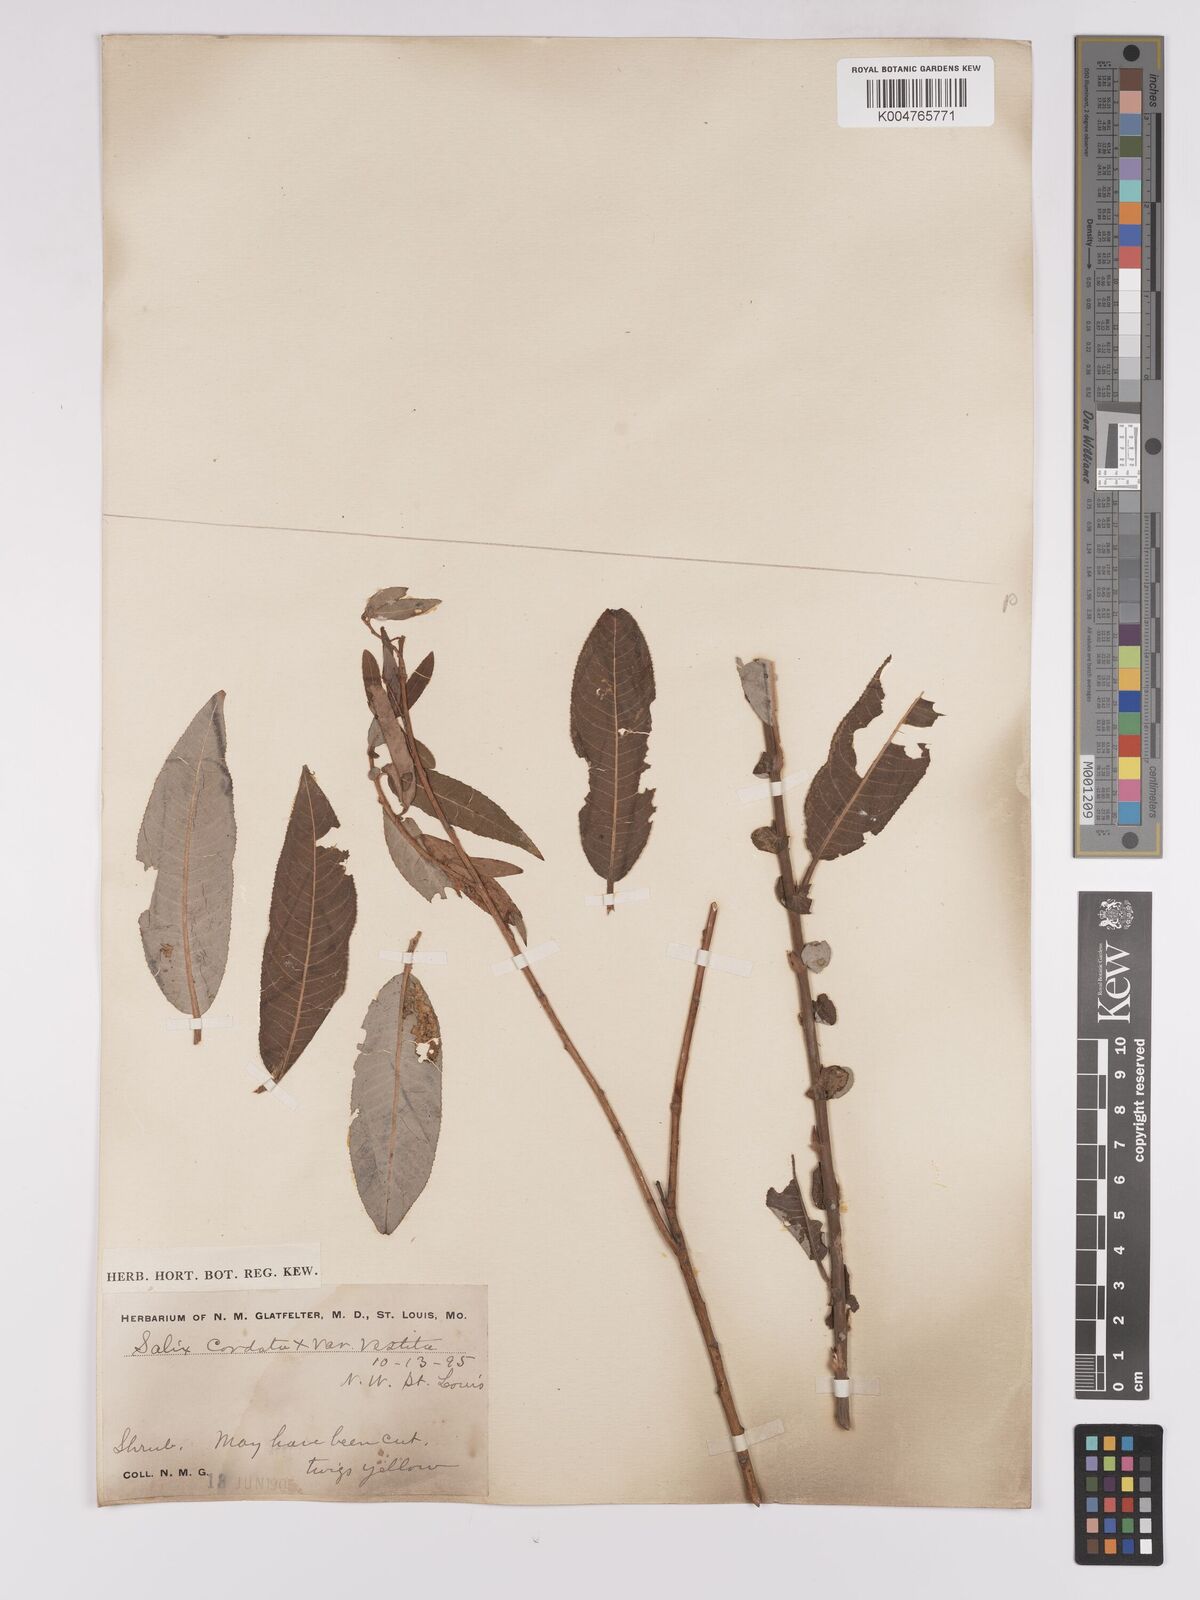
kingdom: Plantae
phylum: Tracheophyta
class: Magnoliopsida
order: Malpighiales
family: Salicaceae
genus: Salix
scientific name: Salix cordata
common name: Heart-leaf willow
